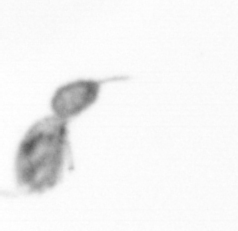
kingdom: Animalia
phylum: Arthropoda
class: Copepoda
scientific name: Copepoda
